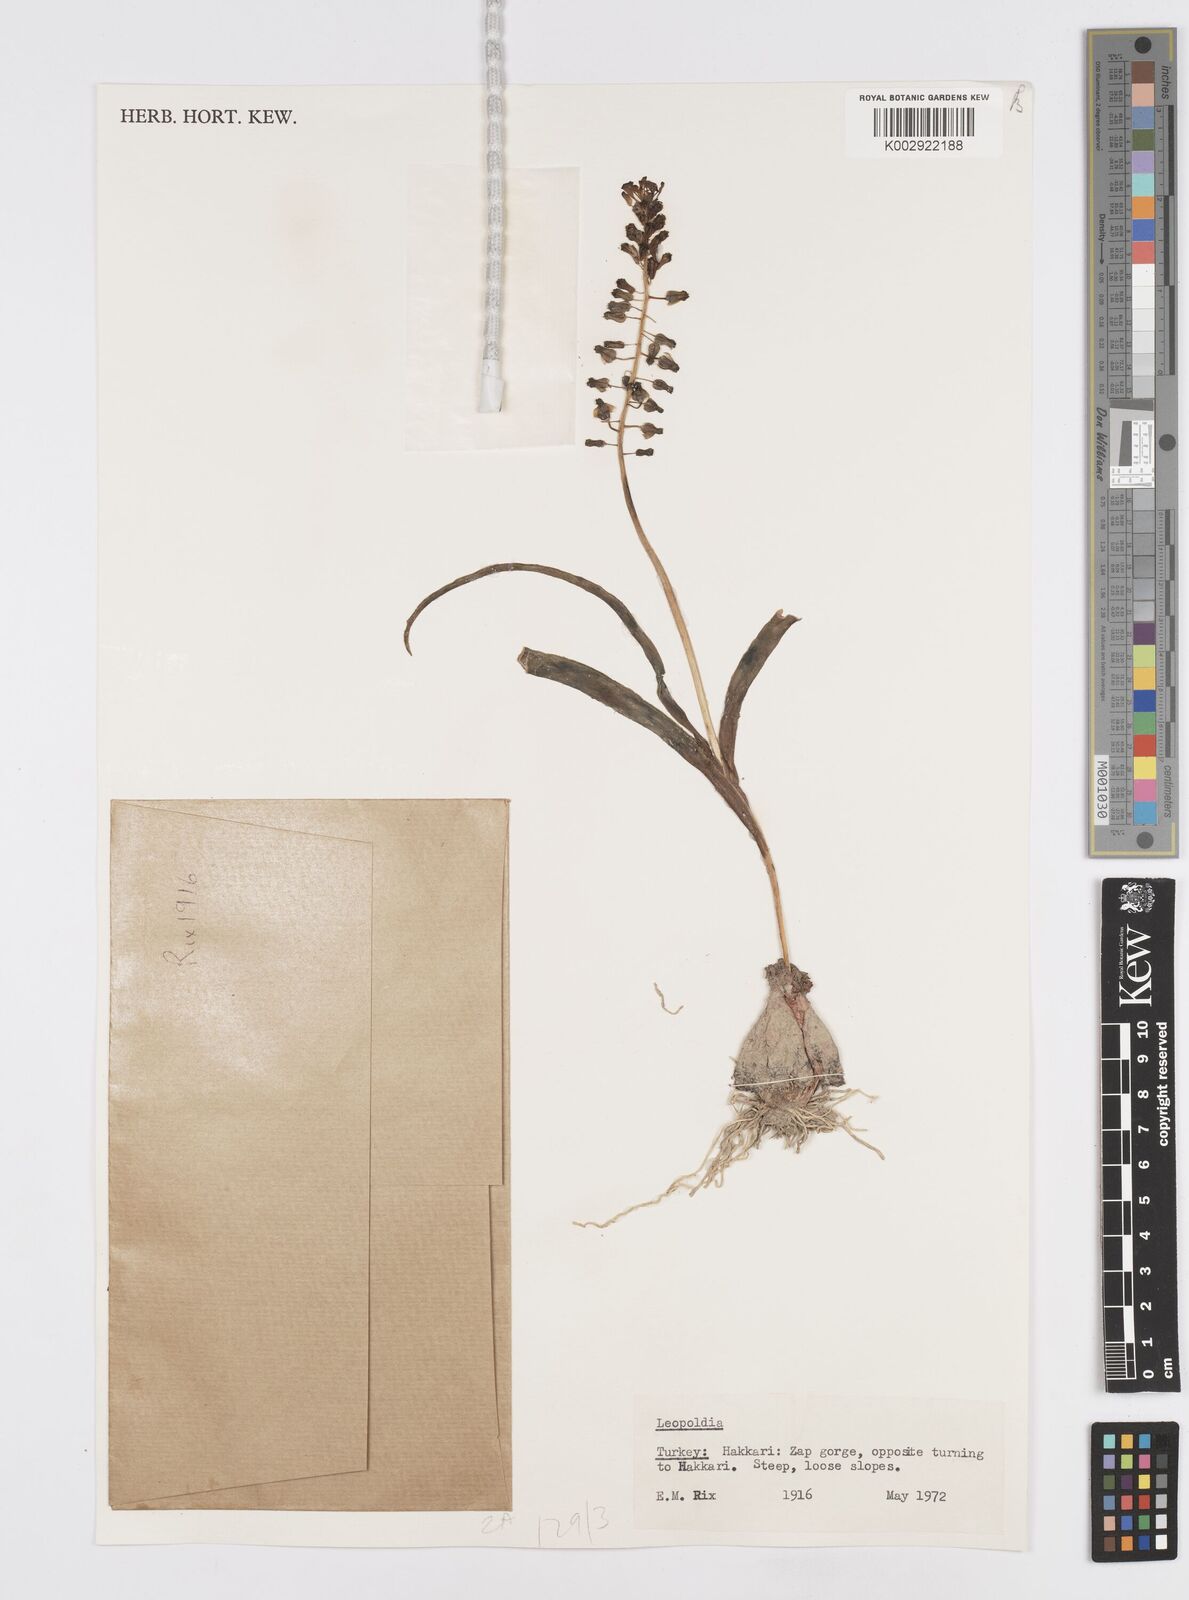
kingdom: Plantae
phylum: Tracheophyta
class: Liliopsida
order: Asparagales
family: Asparagaceae
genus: Muscari
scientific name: Muscari comosum
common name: Tassel hyacinth
